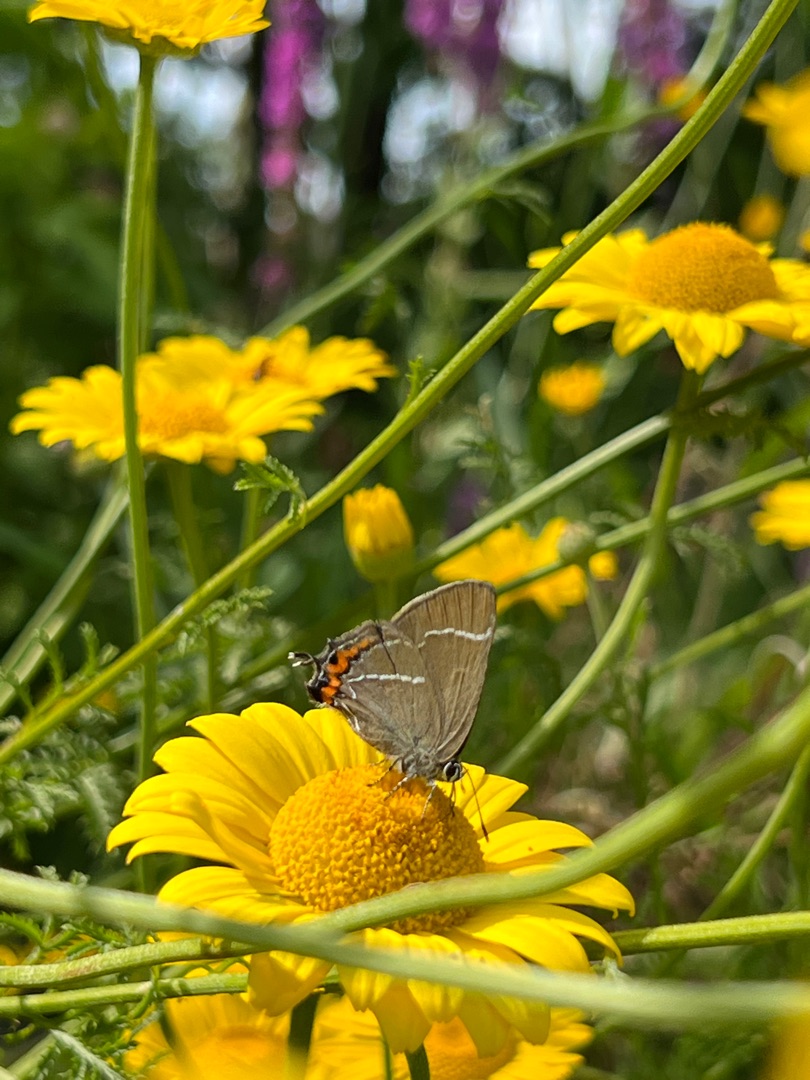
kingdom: Animalia
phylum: Arthropoda
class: Insecta
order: Lepidoptera
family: Lycaenidae
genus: Satyrium
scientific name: Satyrium w-album
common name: Det hvide W
